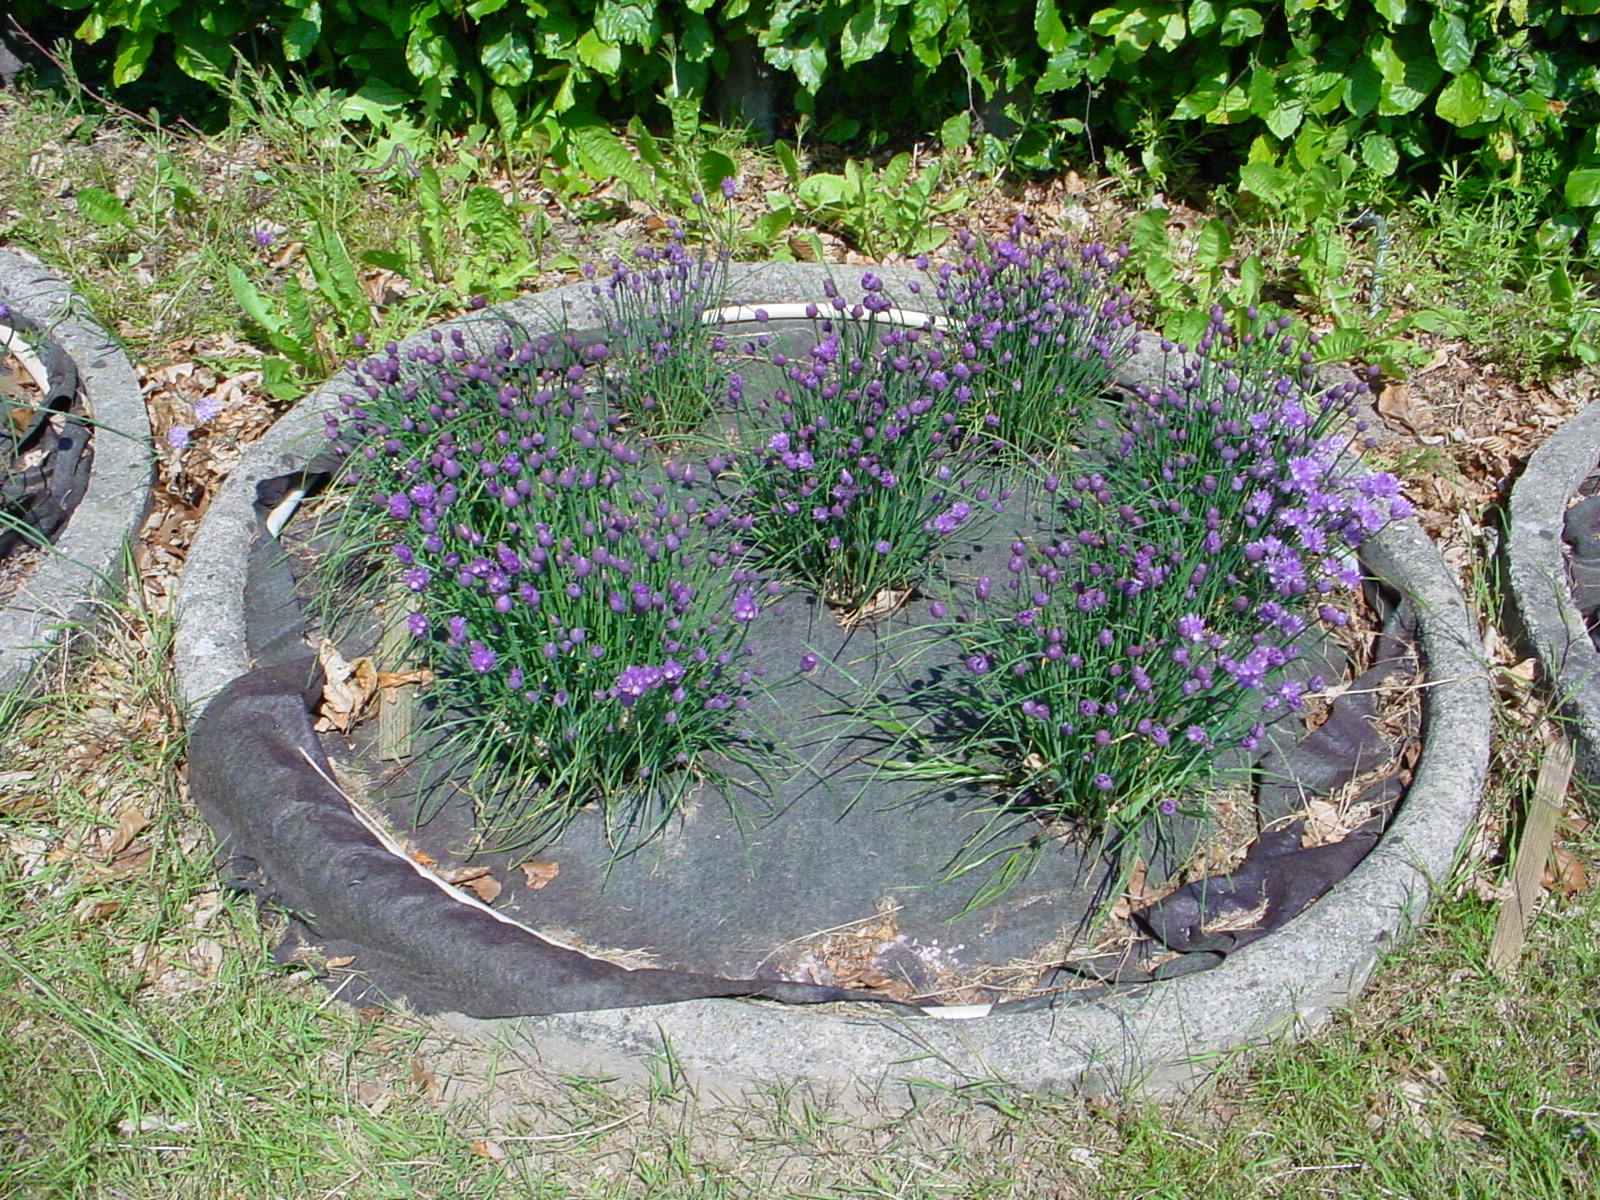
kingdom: Plantae
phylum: Tracheophyta
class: Liliopsida
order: Asparagales
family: Amaryllidaceae
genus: Allium
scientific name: Allium schoenoprasum
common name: Chives
